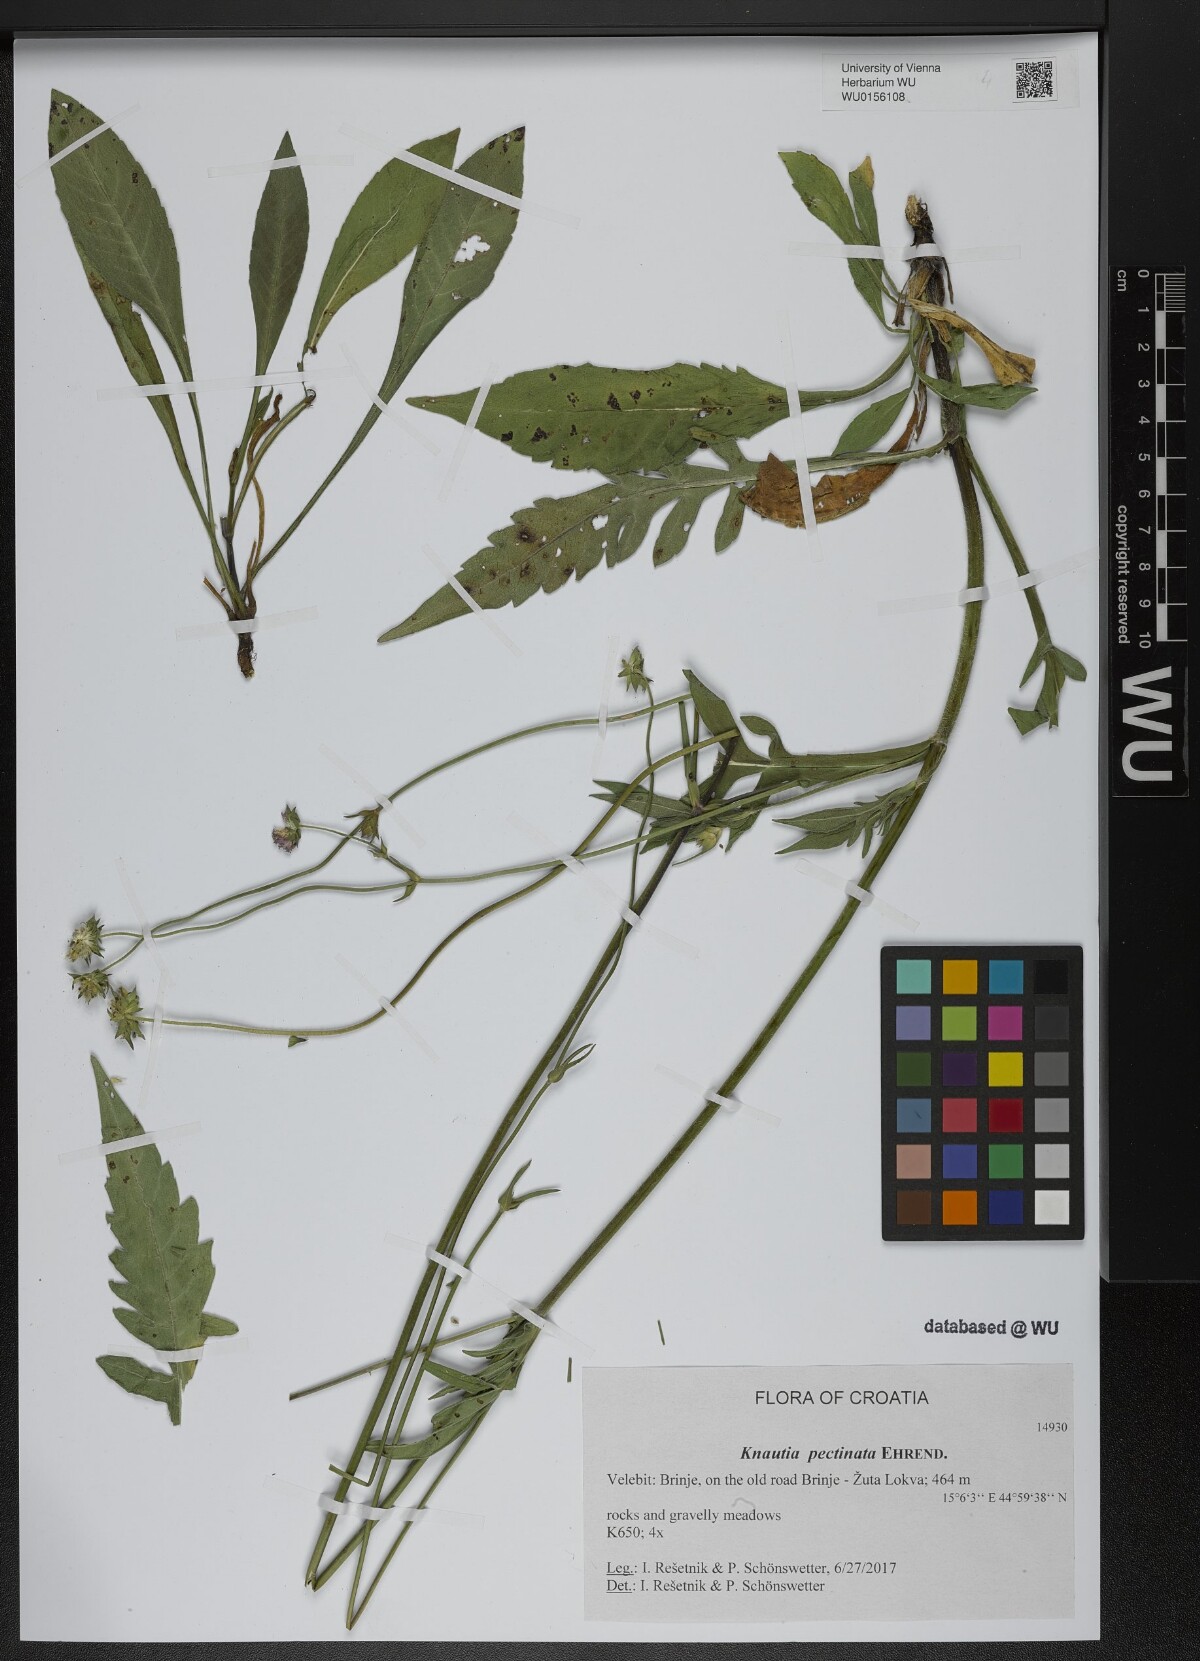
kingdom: Plantae
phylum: Tracheophyta
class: Magnoliopsida
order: Dipsacales
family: Caprifoliaceae
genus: Knautia
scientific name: Knautia pectinata
